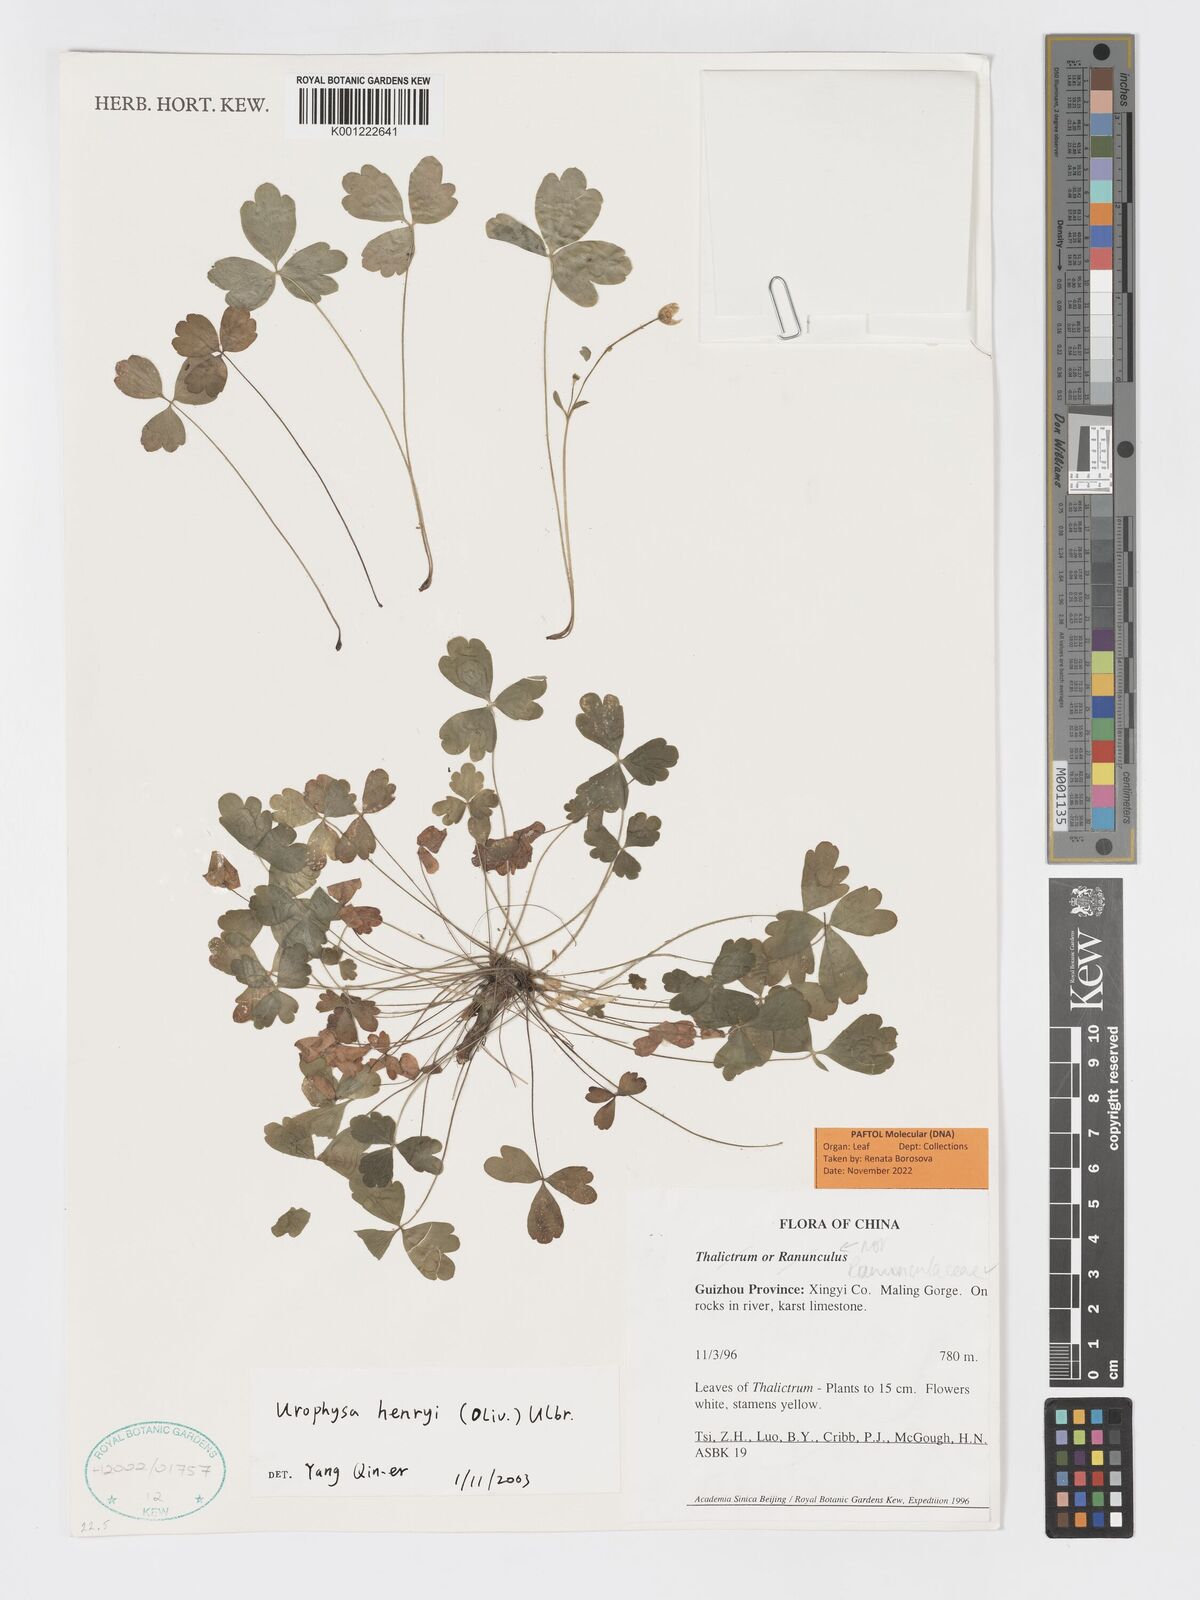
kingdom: Plantae
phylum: Tracheophyta
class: Magnoliopsida
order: Ranunculales
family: Ranunculaceae
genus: Urophysa
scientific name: Urophysa henryi
